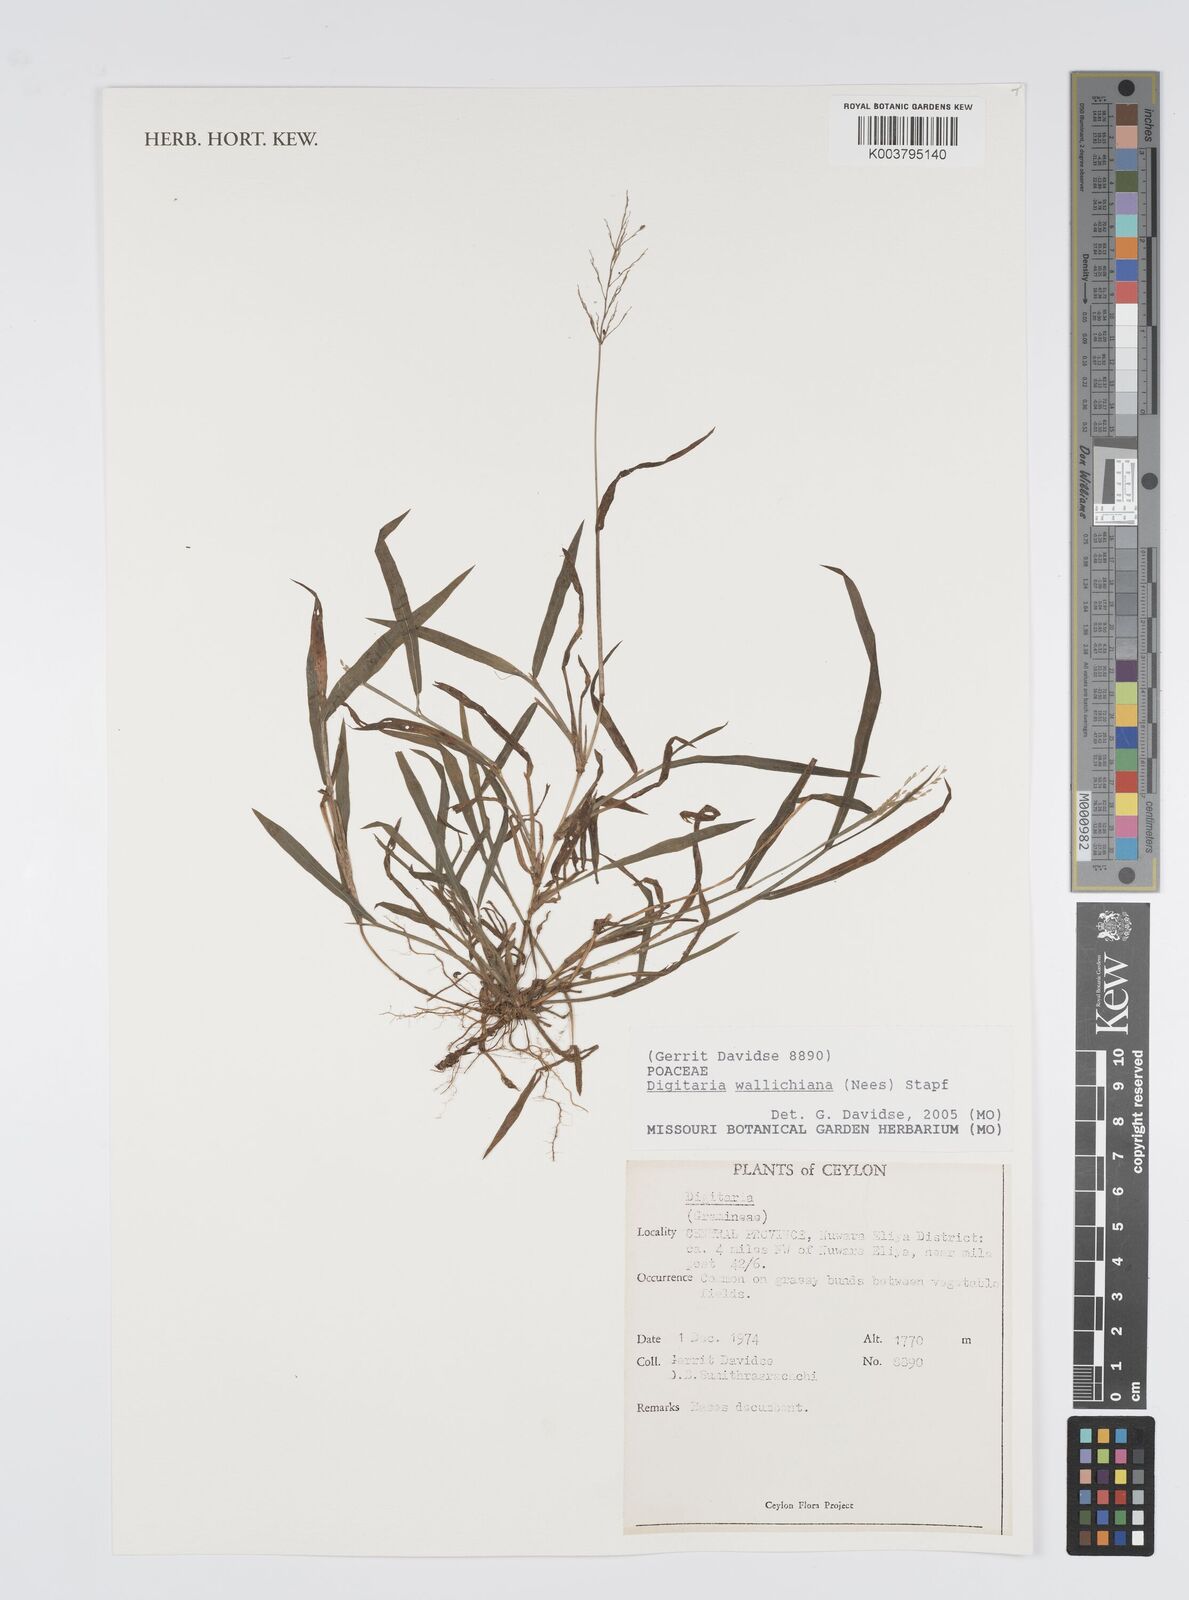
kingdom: Plantae
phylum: Tracheophyta
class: Liliopsida
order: Poales
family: Poaceae
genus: Digitaria
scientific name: Digitaria wallichiana
